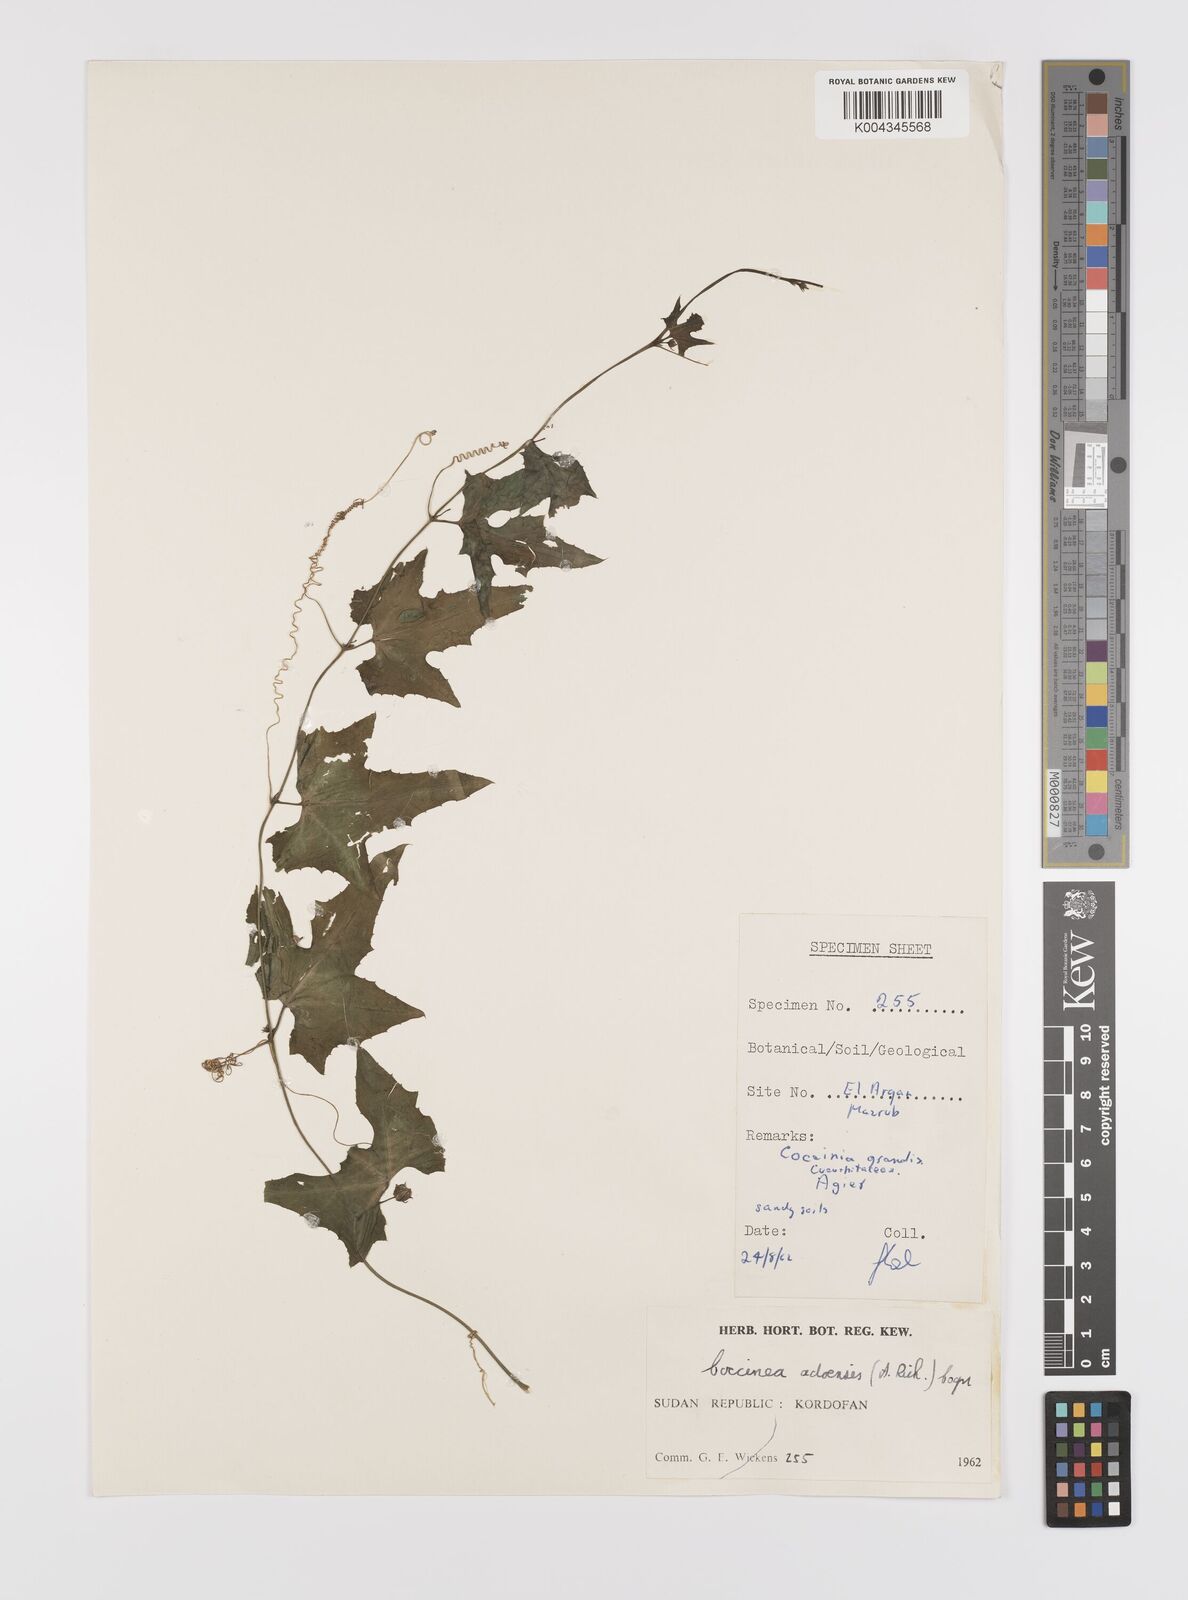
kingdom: Plantae
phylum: Tracheophyta
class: Magnoliopsida
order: Cucurbitales
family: Cucurbitaceae
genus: Coccinia
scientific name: Coccinia grandis
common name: Ivy gourd
